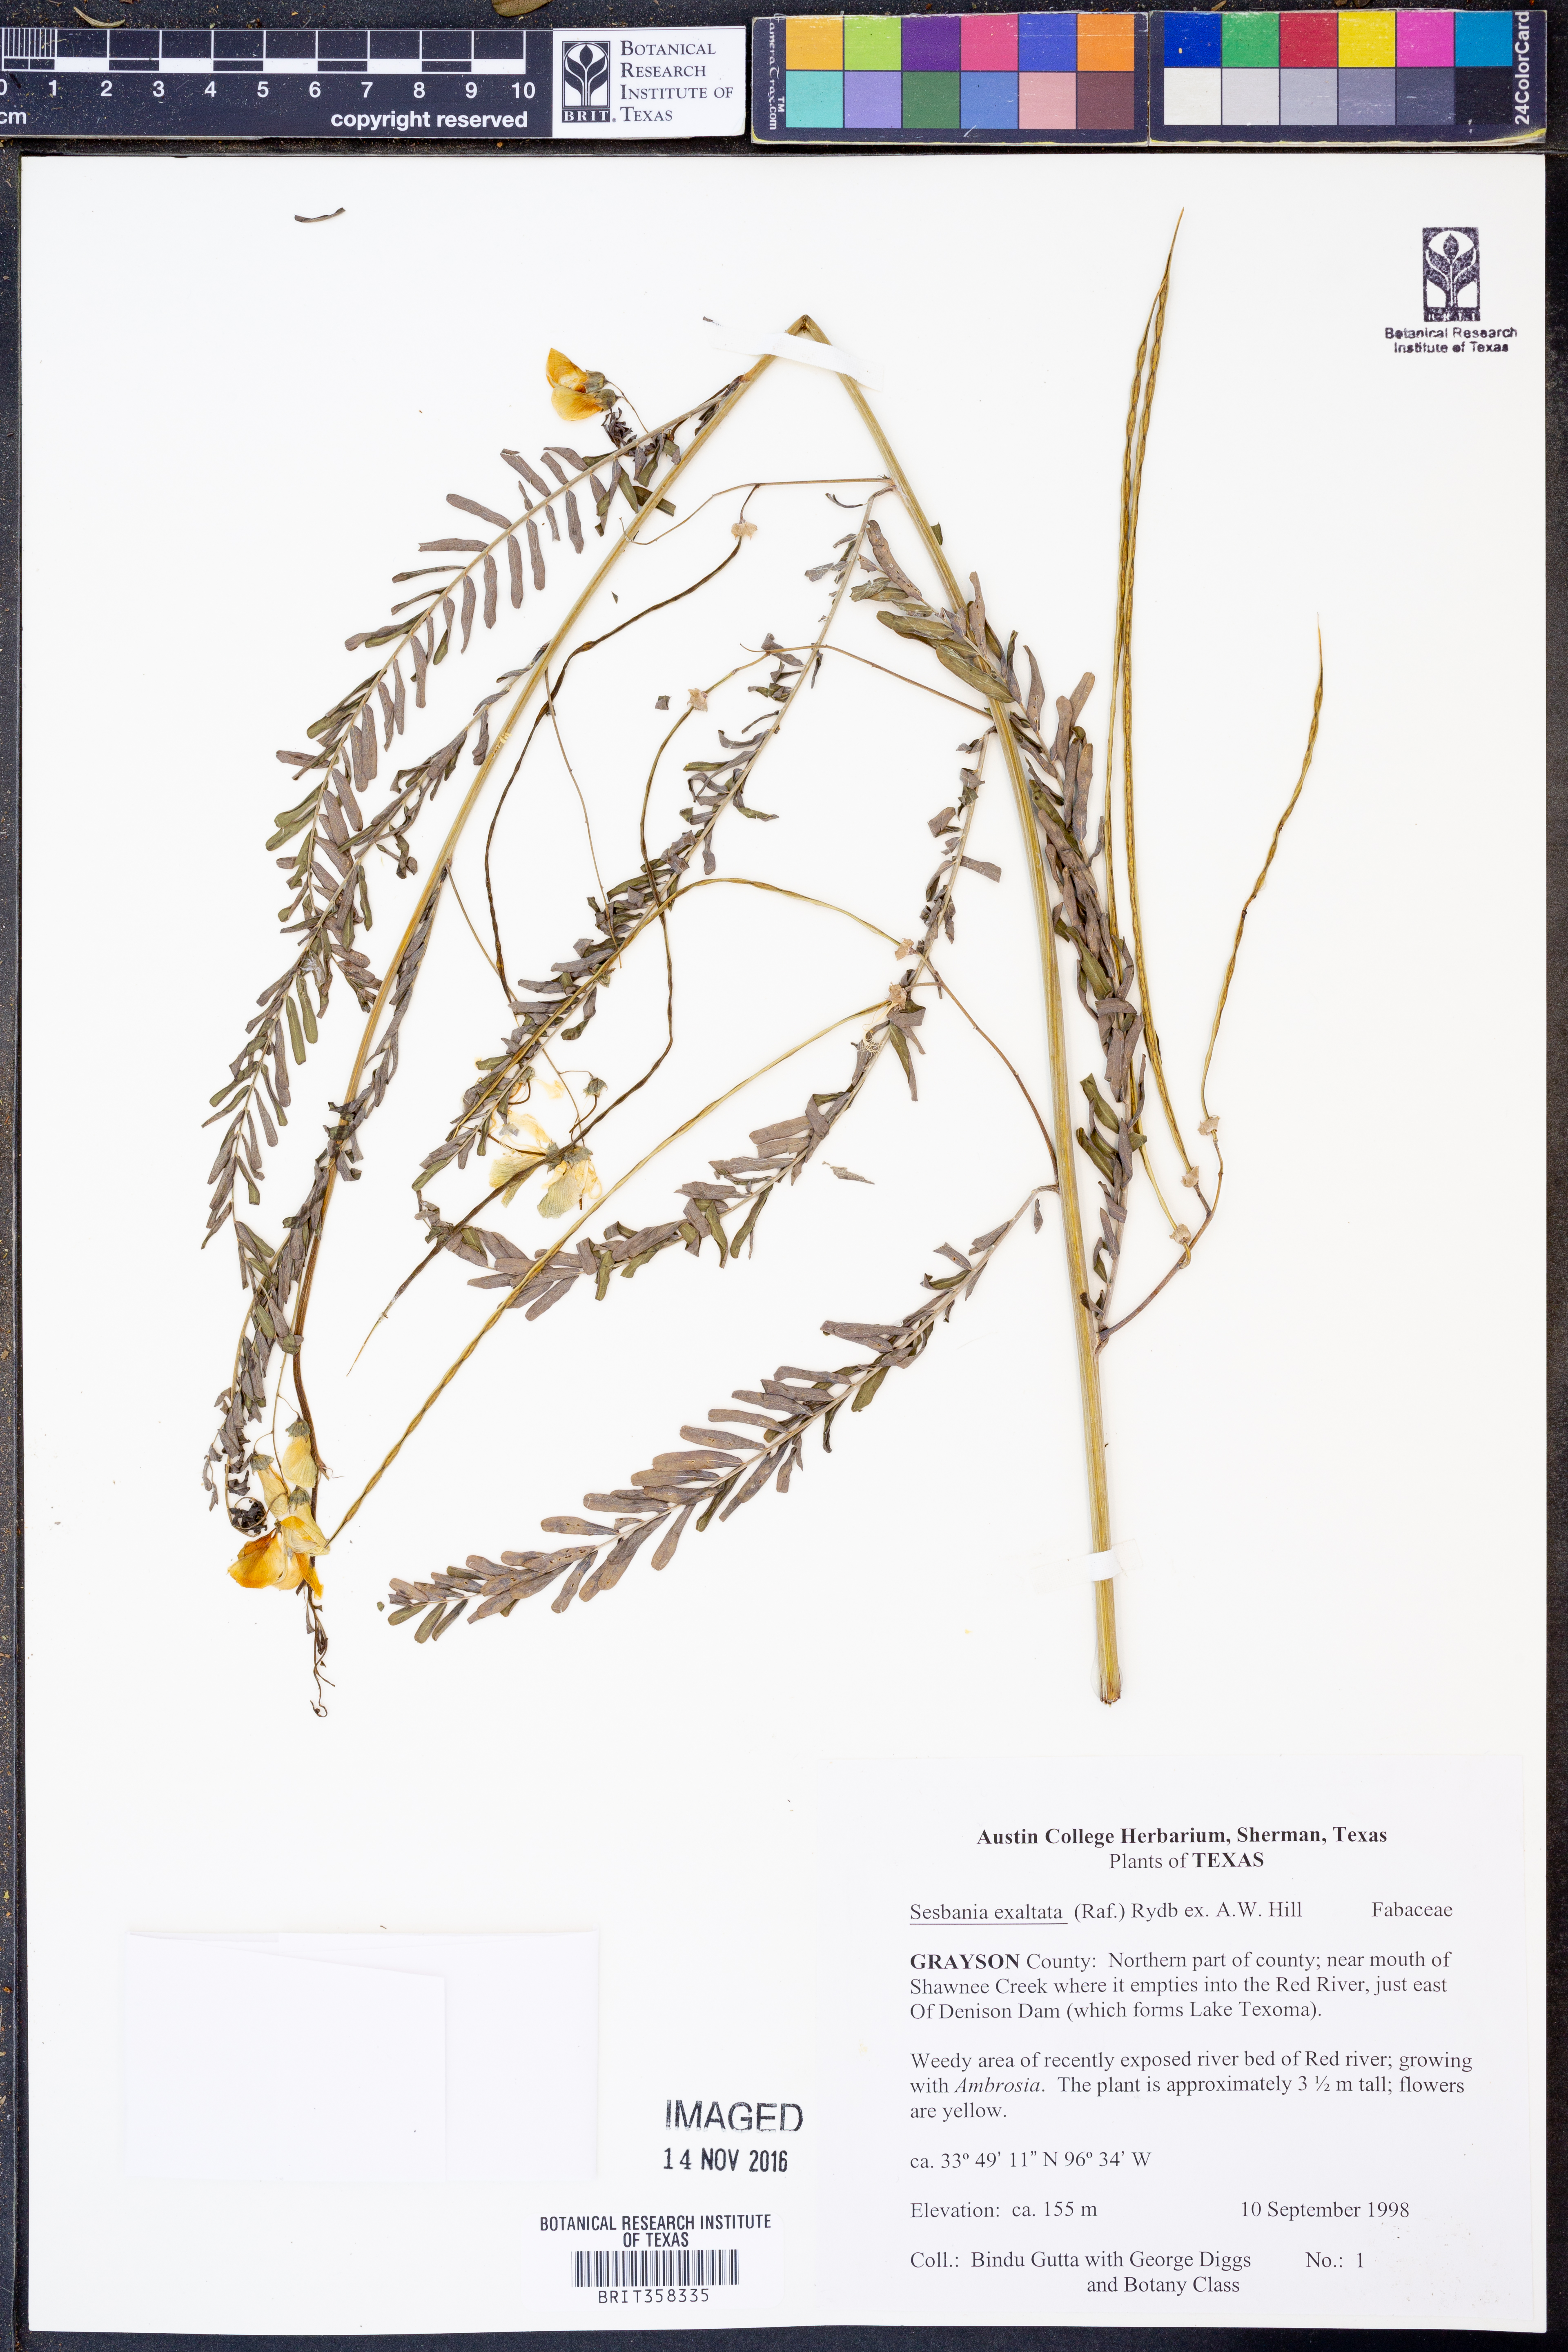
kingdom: Plantae
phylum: Tracheophyta
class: Magnoliopsida
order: Fabales
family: Fabaceae
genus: Sesbania
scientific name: Sesbania herbacea
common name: Bigpod sesbania
